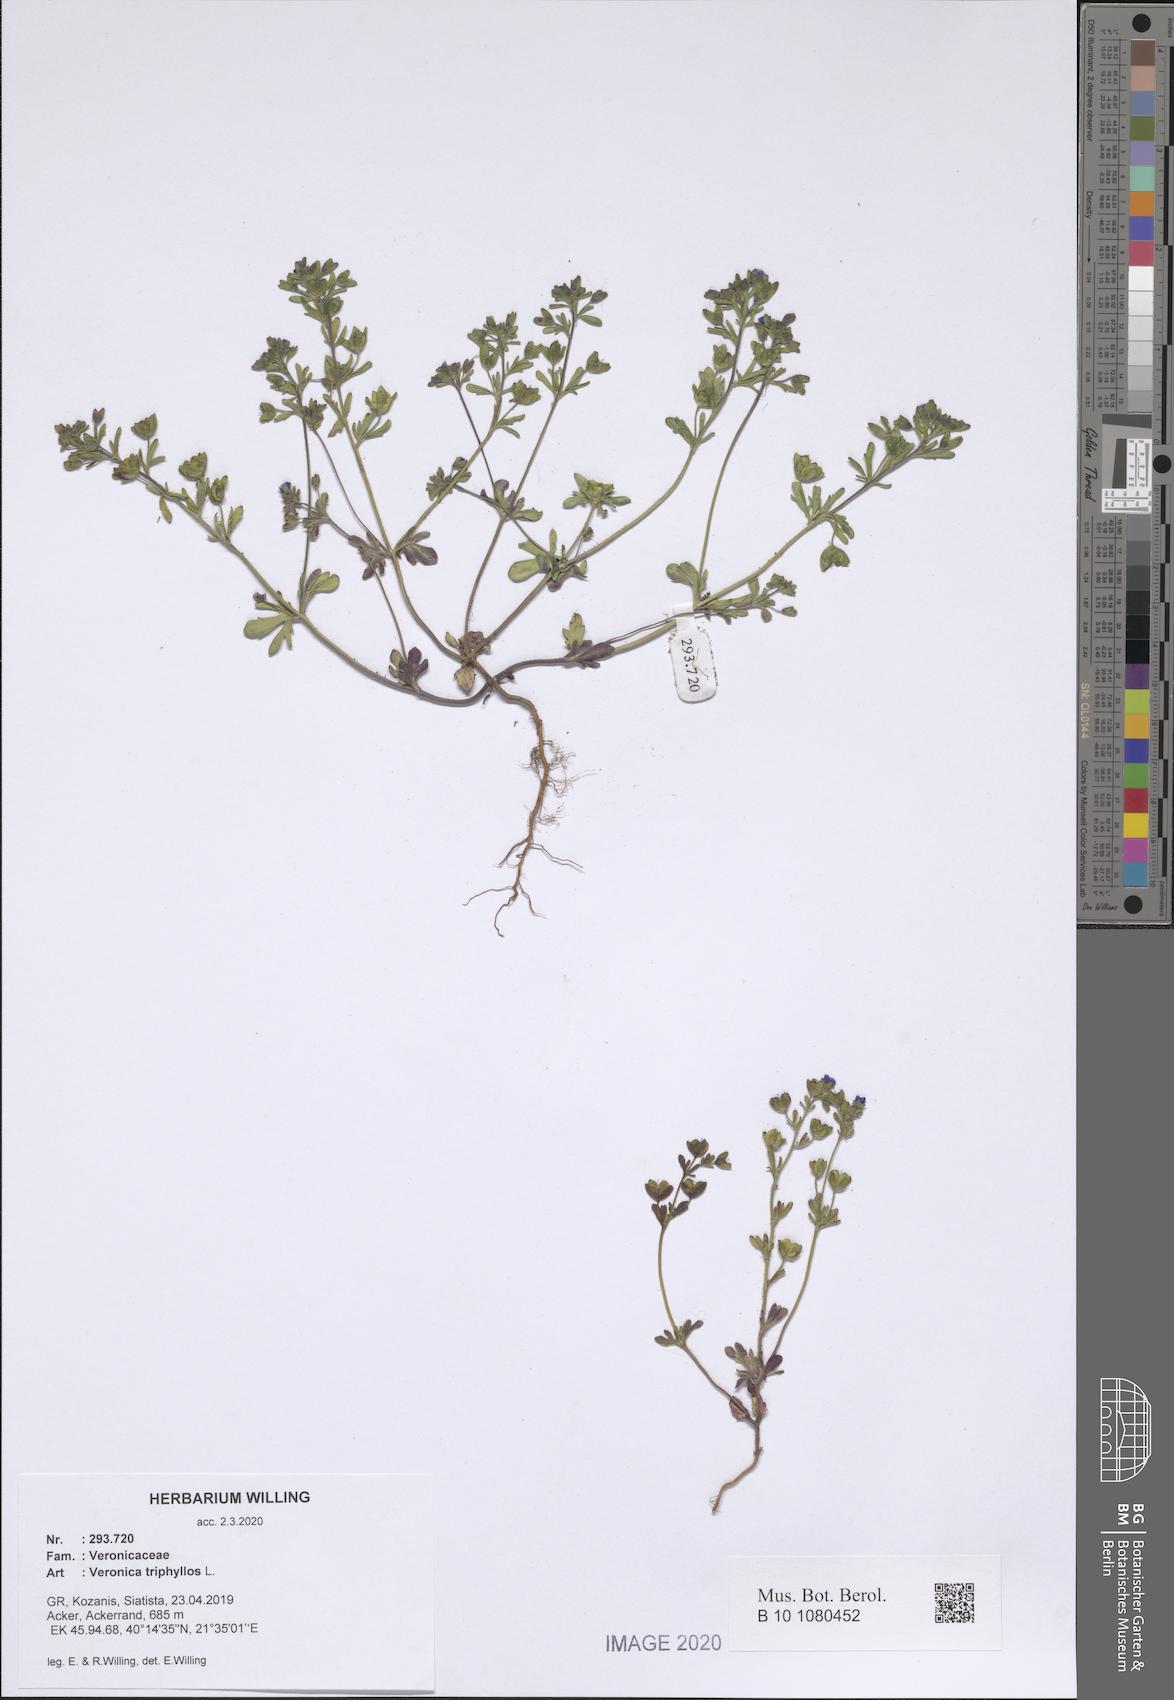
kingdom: Plantae
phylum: Tracheophyta
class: Magnoliopsida
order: Lamiales
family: Plantaginaceae
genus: Veronica
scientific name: Veronica triphyllos
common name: Fingered speedwell
